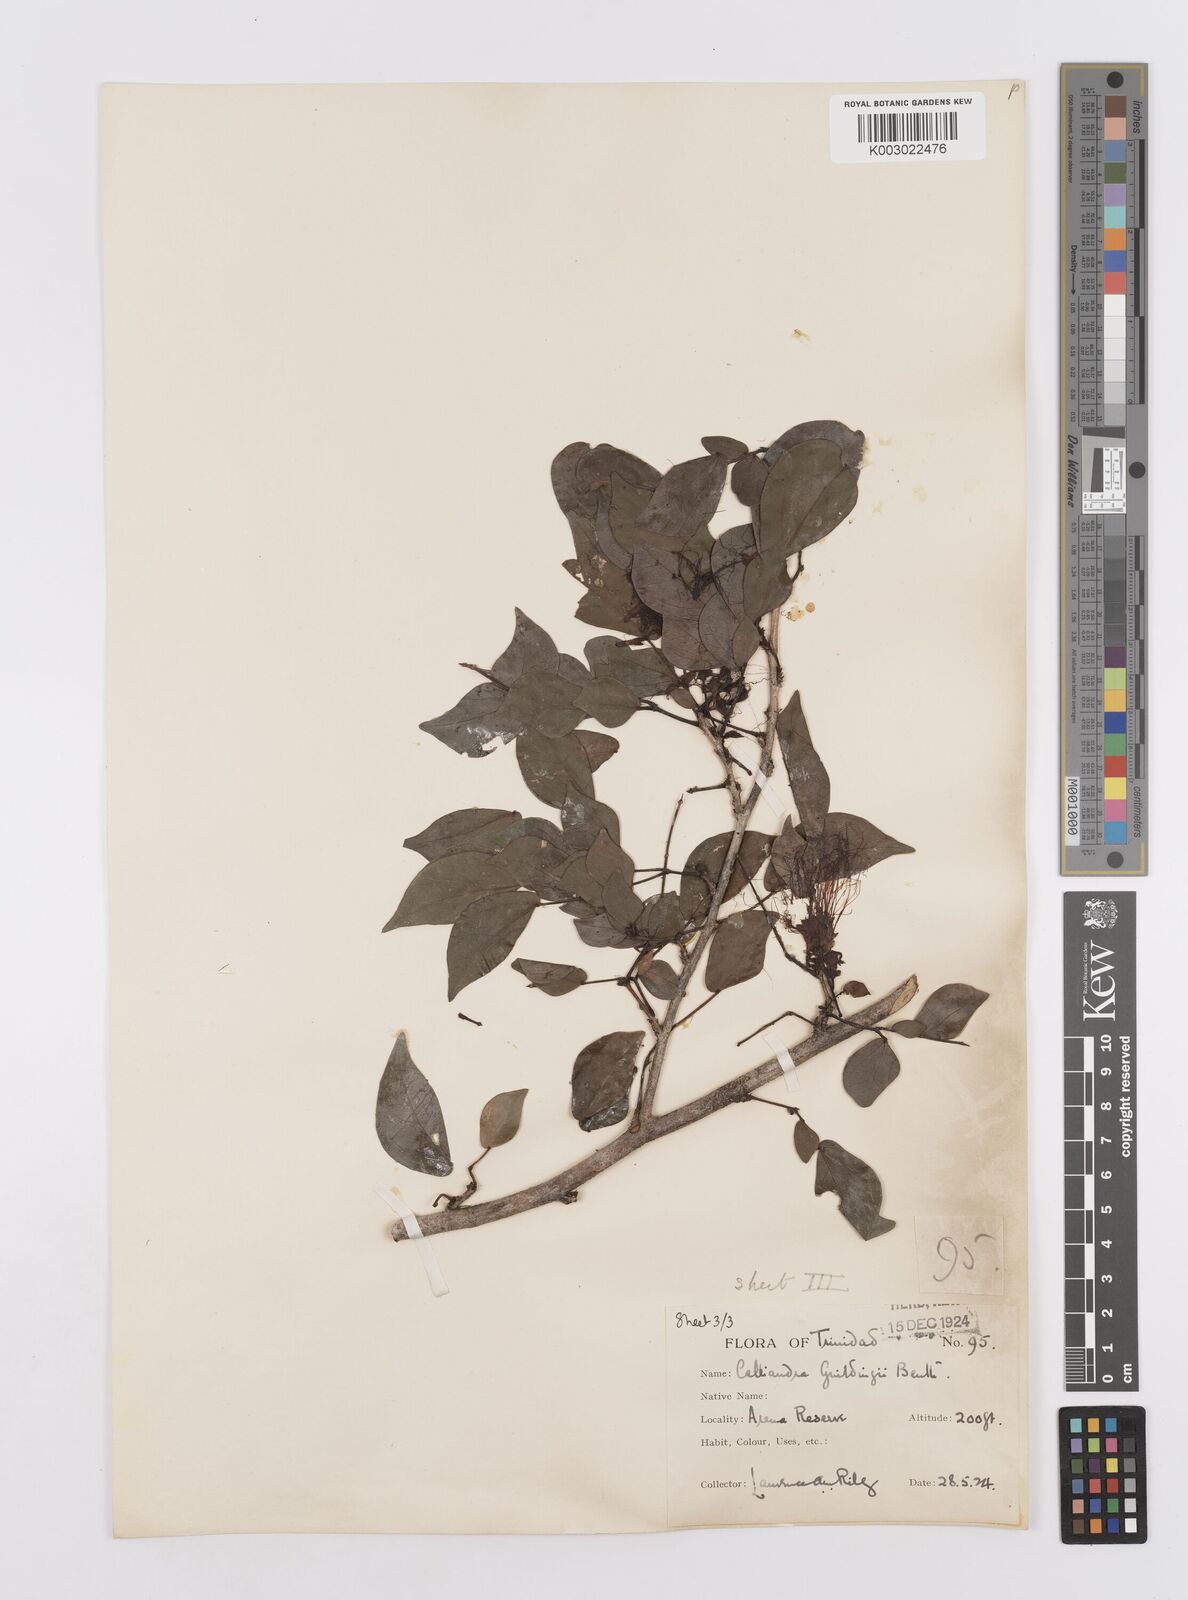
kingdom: Plantae
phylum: Tracheophyta
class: Magnoliopsida
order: Fabales
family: Fabaceae
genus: Calliandra
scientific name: Calliandra guildingii
